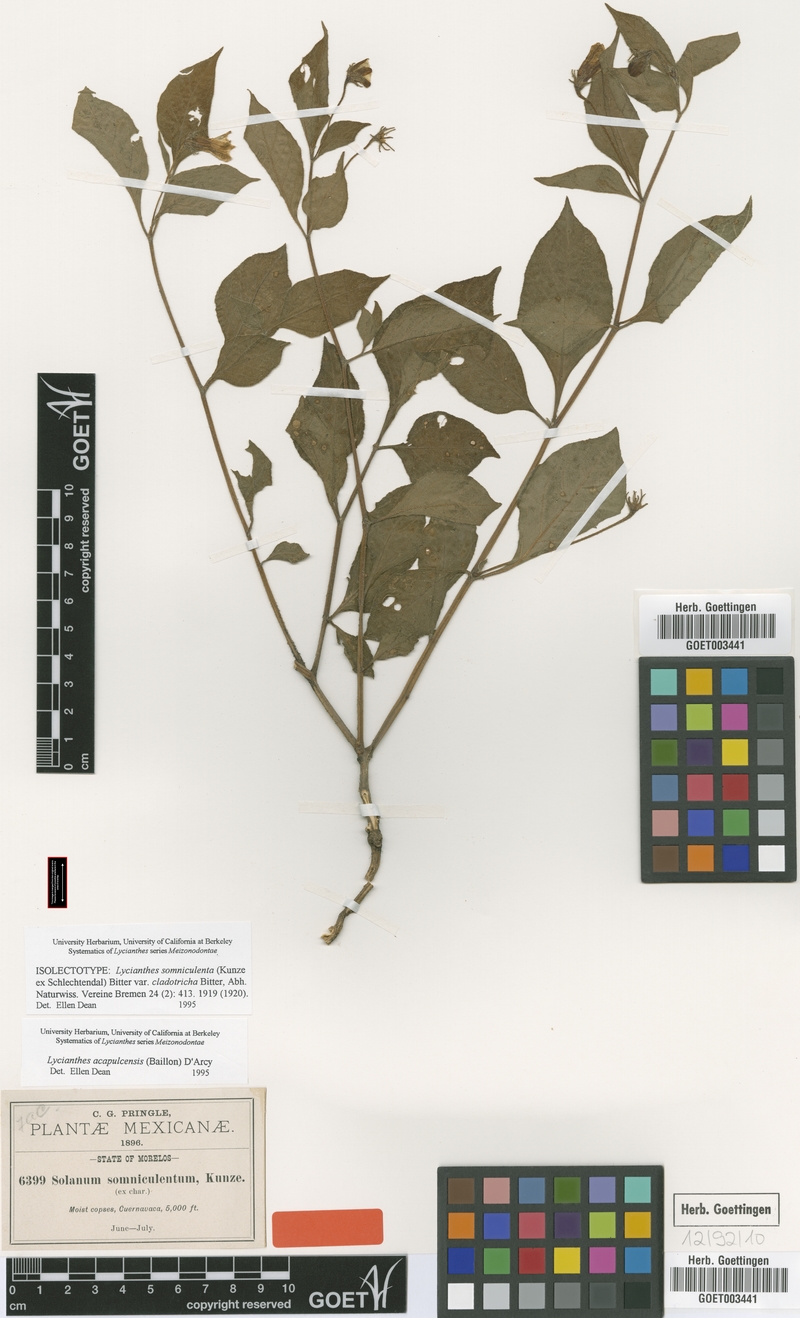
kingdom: Plantae
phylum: Tracheophyta
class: Magnoliopsida
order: Solanales
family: Solanaceae
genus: Lycianthes
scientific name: Lycianthes acapulcensis
